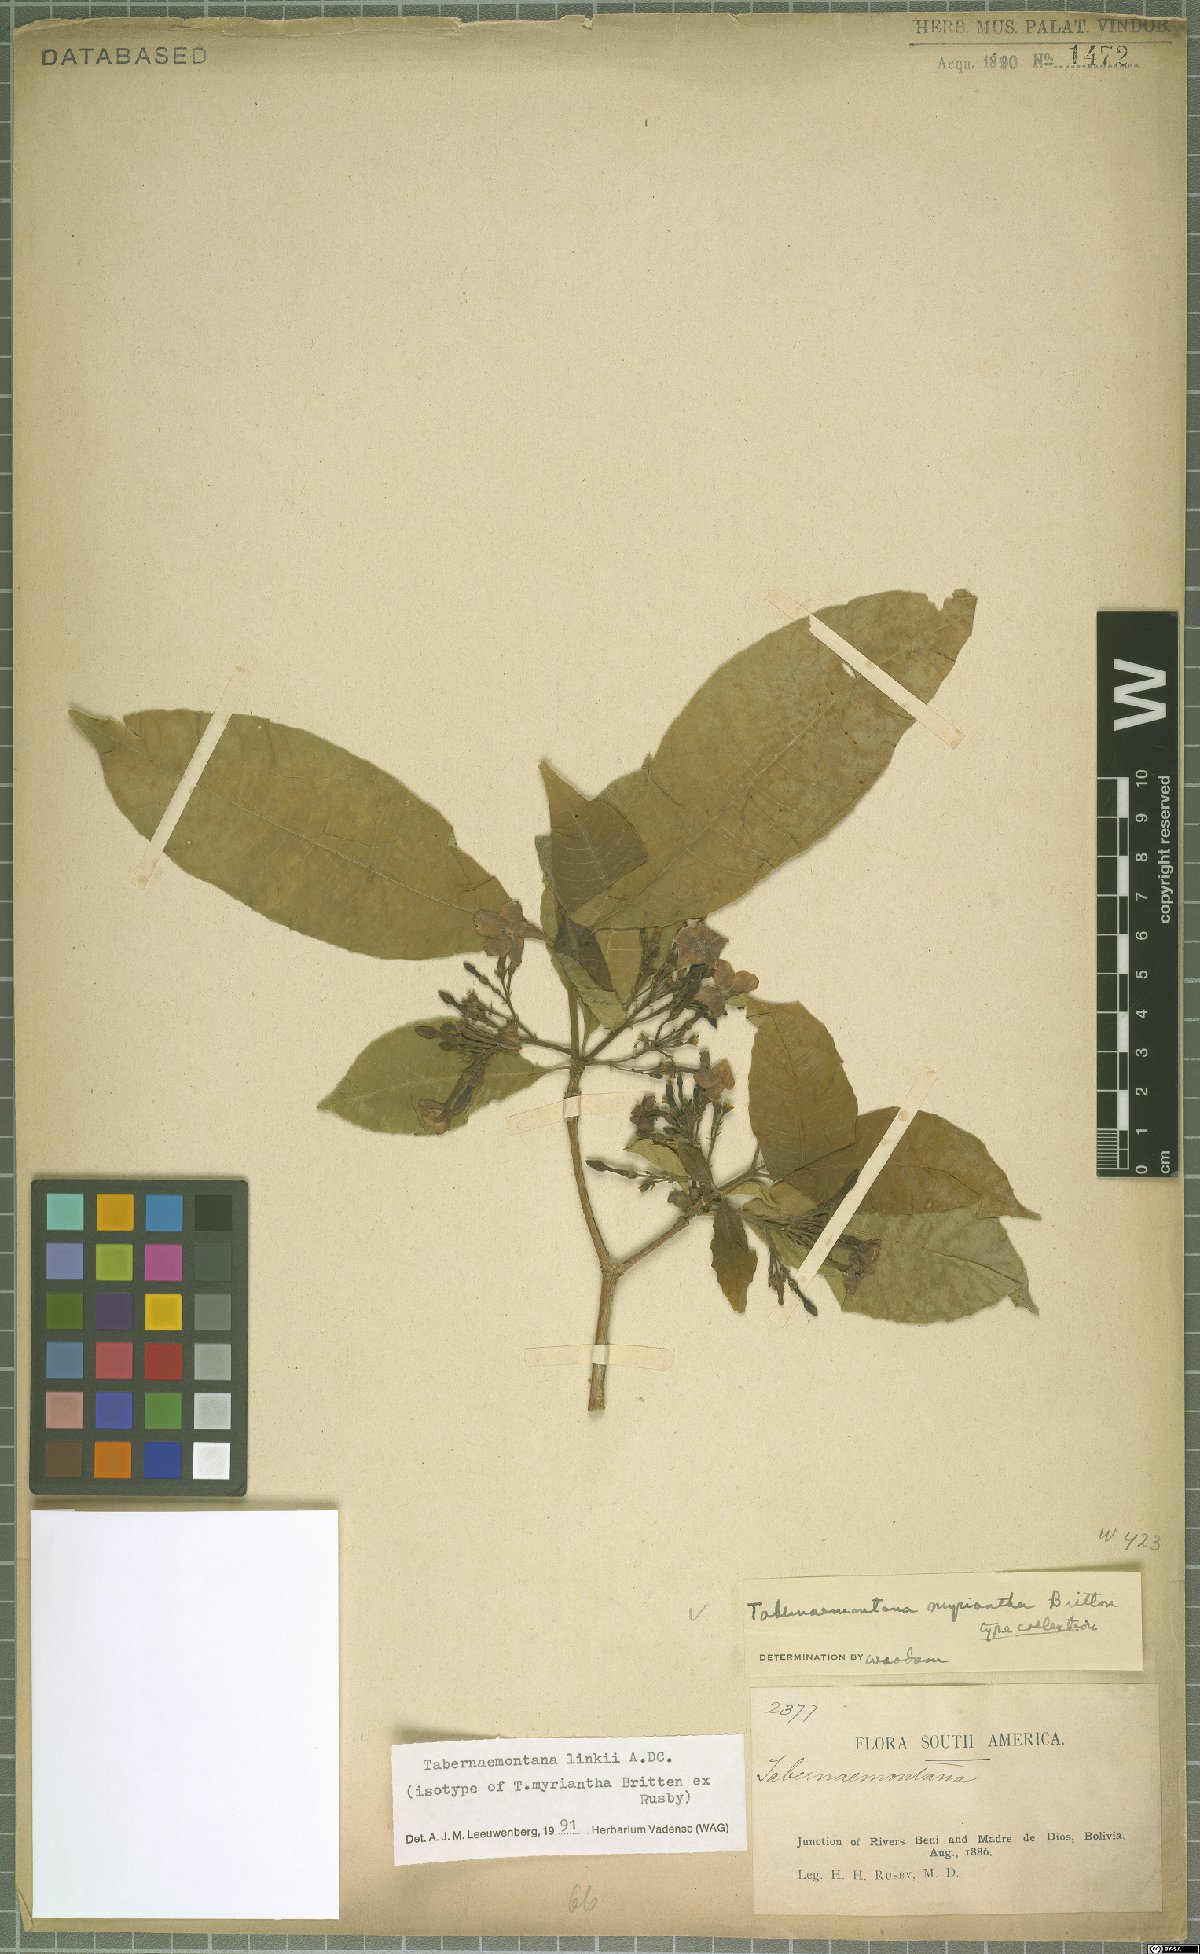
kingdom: Plantae
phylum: Tracheophyta
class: Magnoliopsida
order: Gentianales
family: Apocynaceae
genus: Tabernaemontana
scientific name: Tabernaemontana linkii
